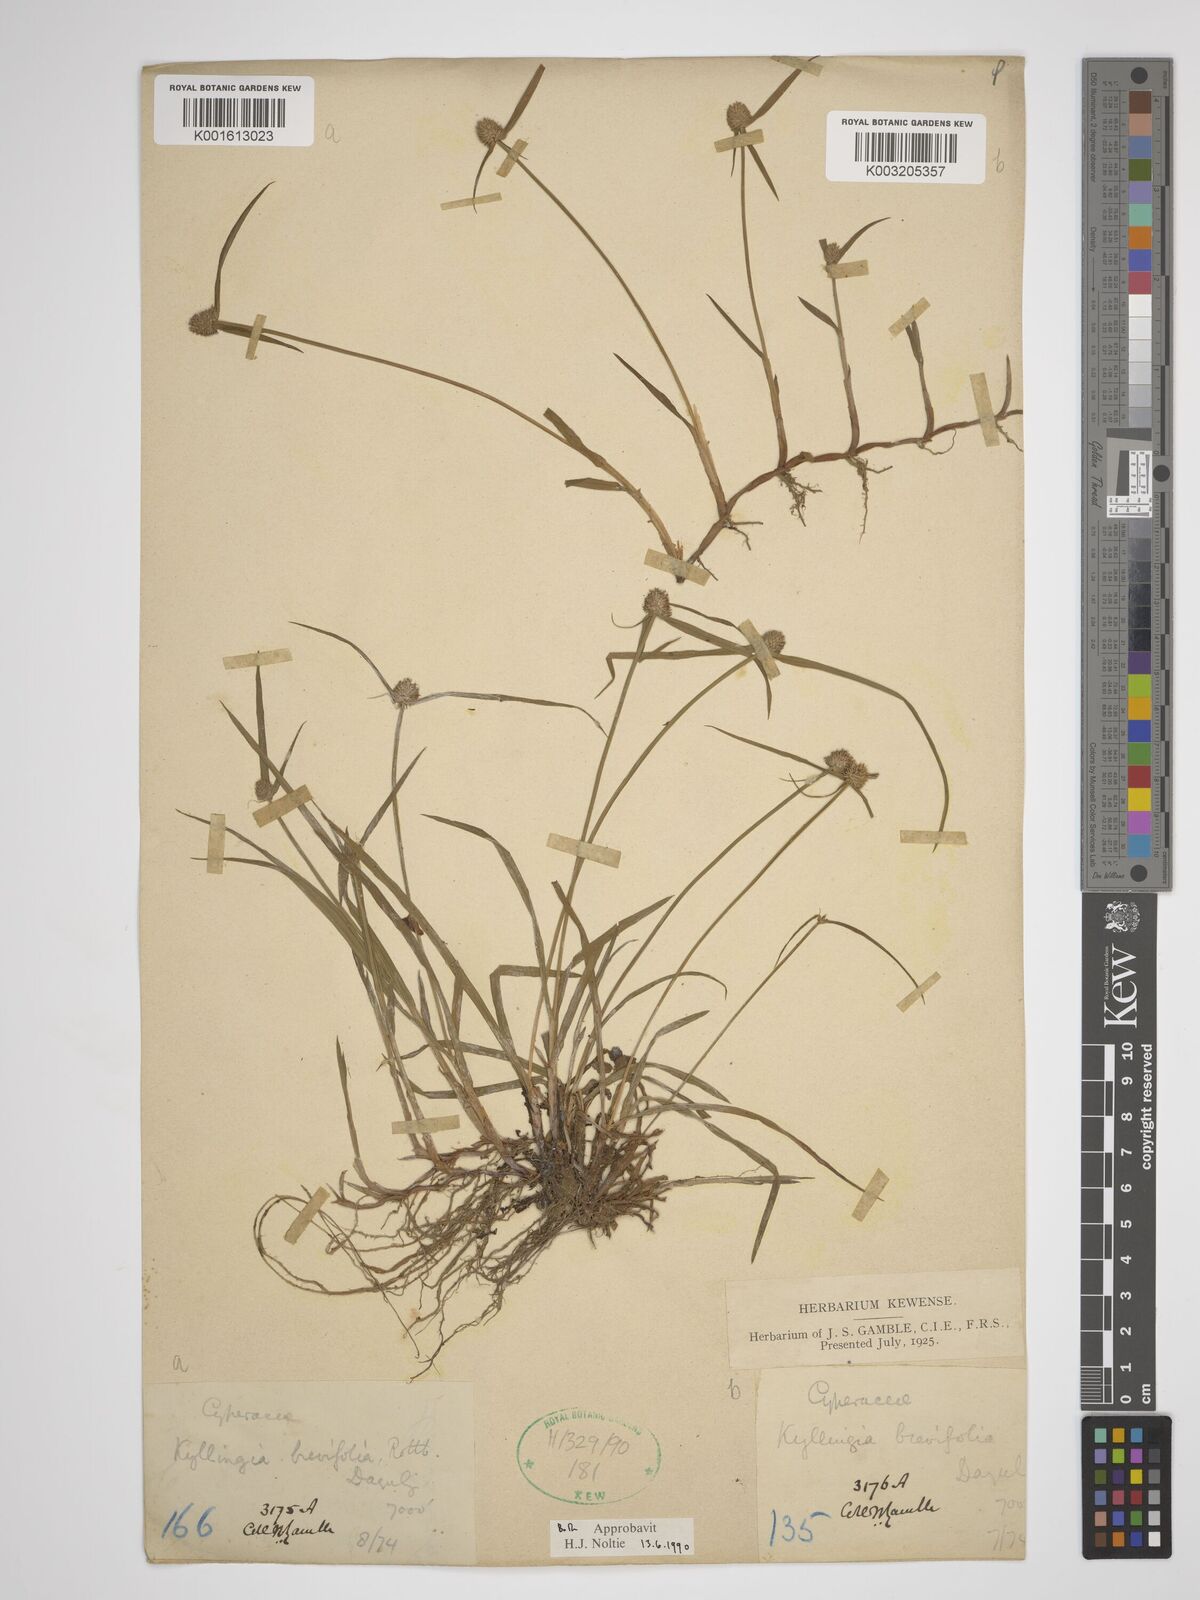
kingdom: Plantae
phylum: Tracheophyta
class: Liliopsida
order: Poales
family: Cyperaceae
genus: Cyperus
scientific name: Cyperus brevifolius
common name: Globe kyllinga
